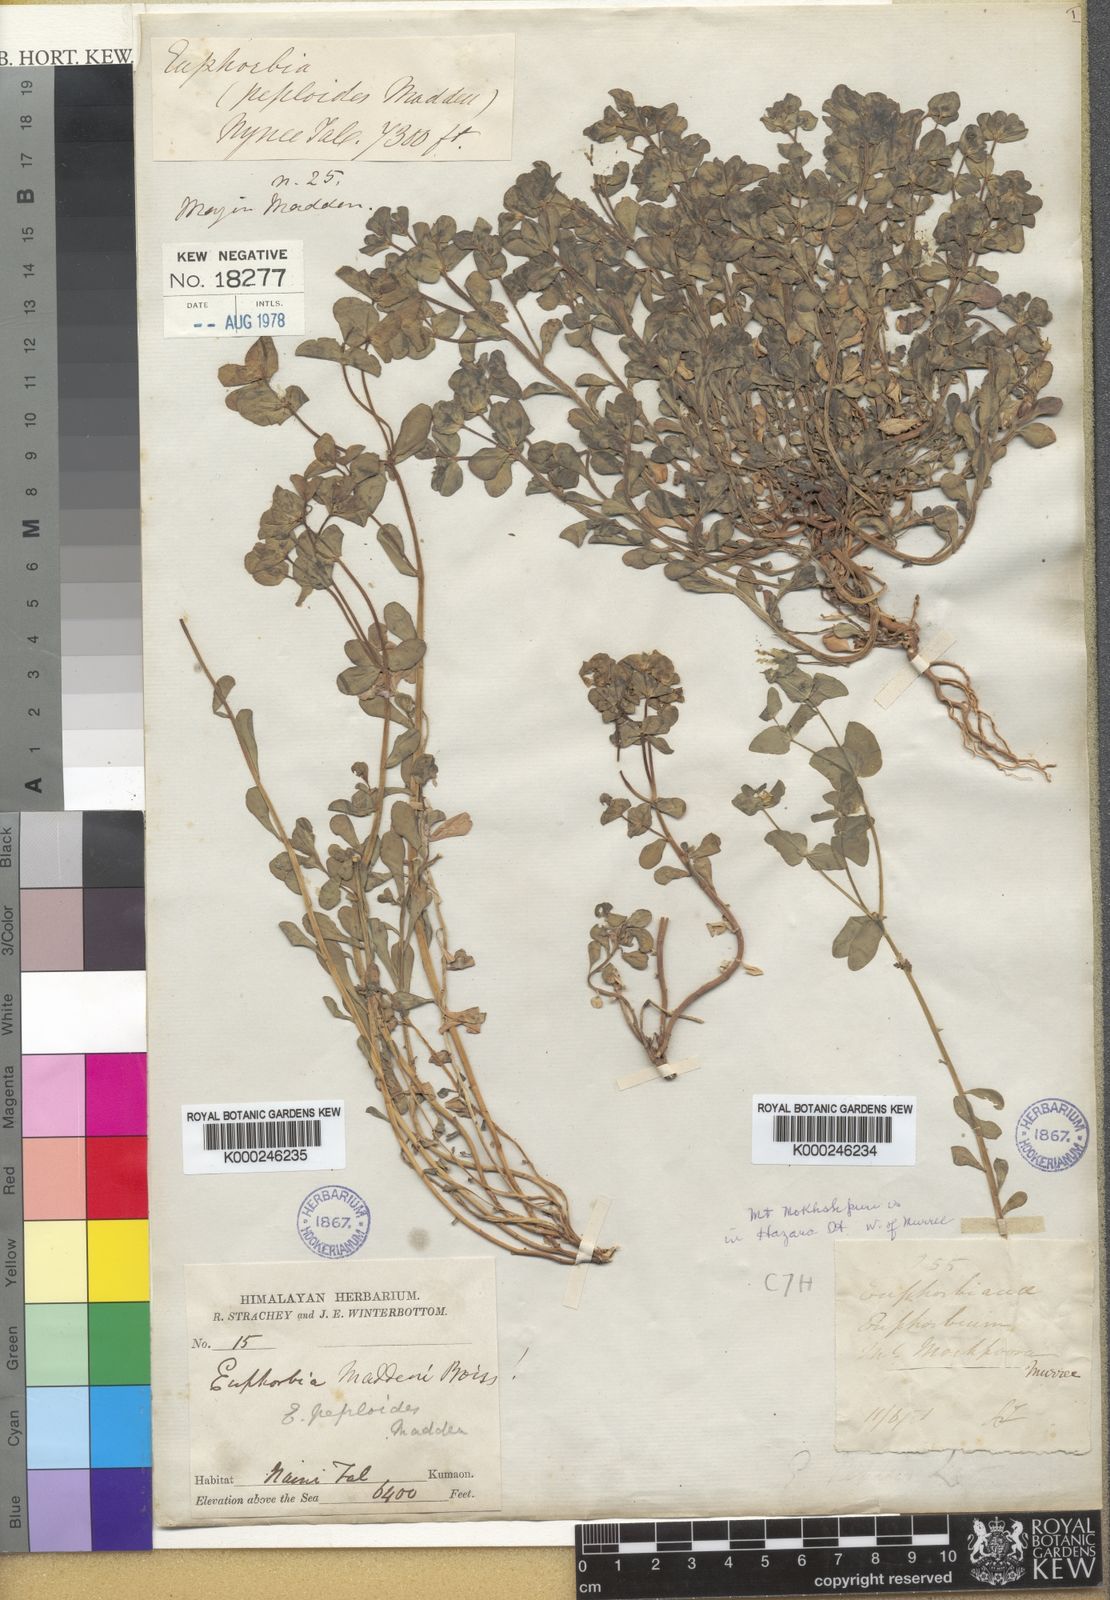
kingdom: Plantae
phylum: Tracheophyta
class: Magnoliopsida
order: Malpighiales
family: Euphorbiaceae
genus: Euphorbia
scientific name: Euphorbia maddenii
